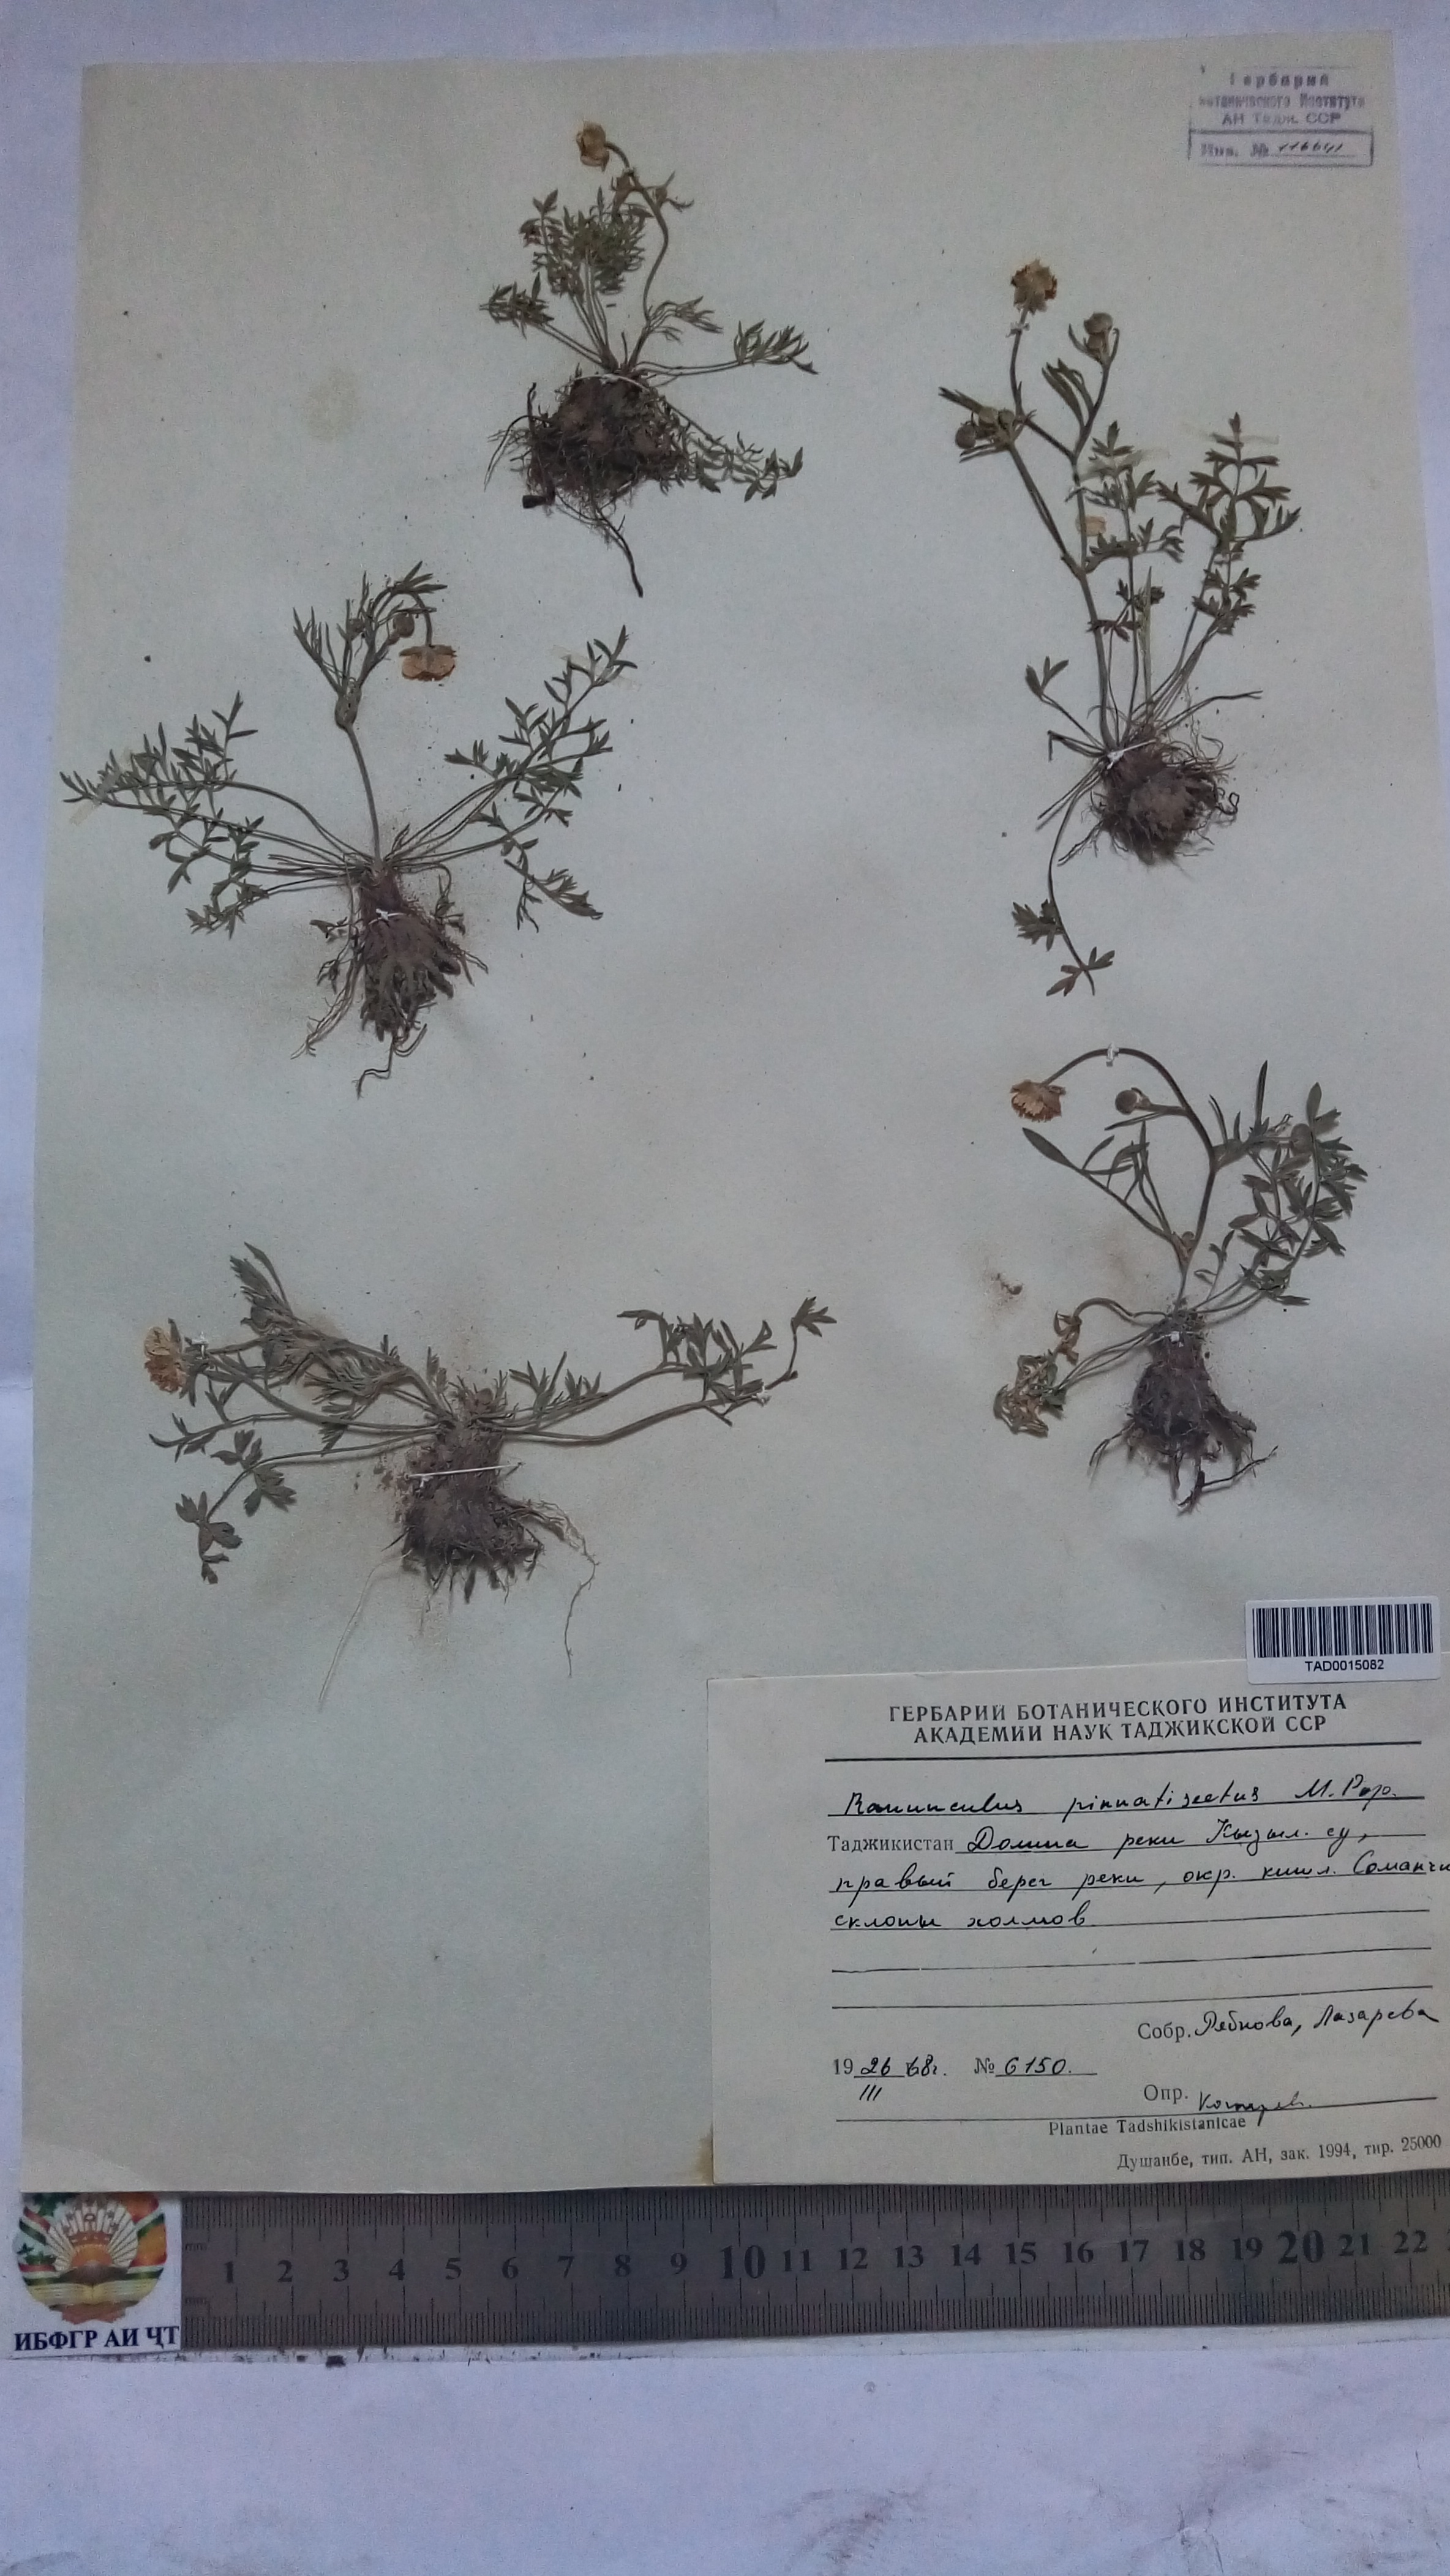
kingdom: Plantae
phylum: Tracheophyta
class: Magnoliopsida
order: Ranunculales
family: Ranunculaceae
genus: Ranunculus
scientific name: Ranunculus pinnatisectus
